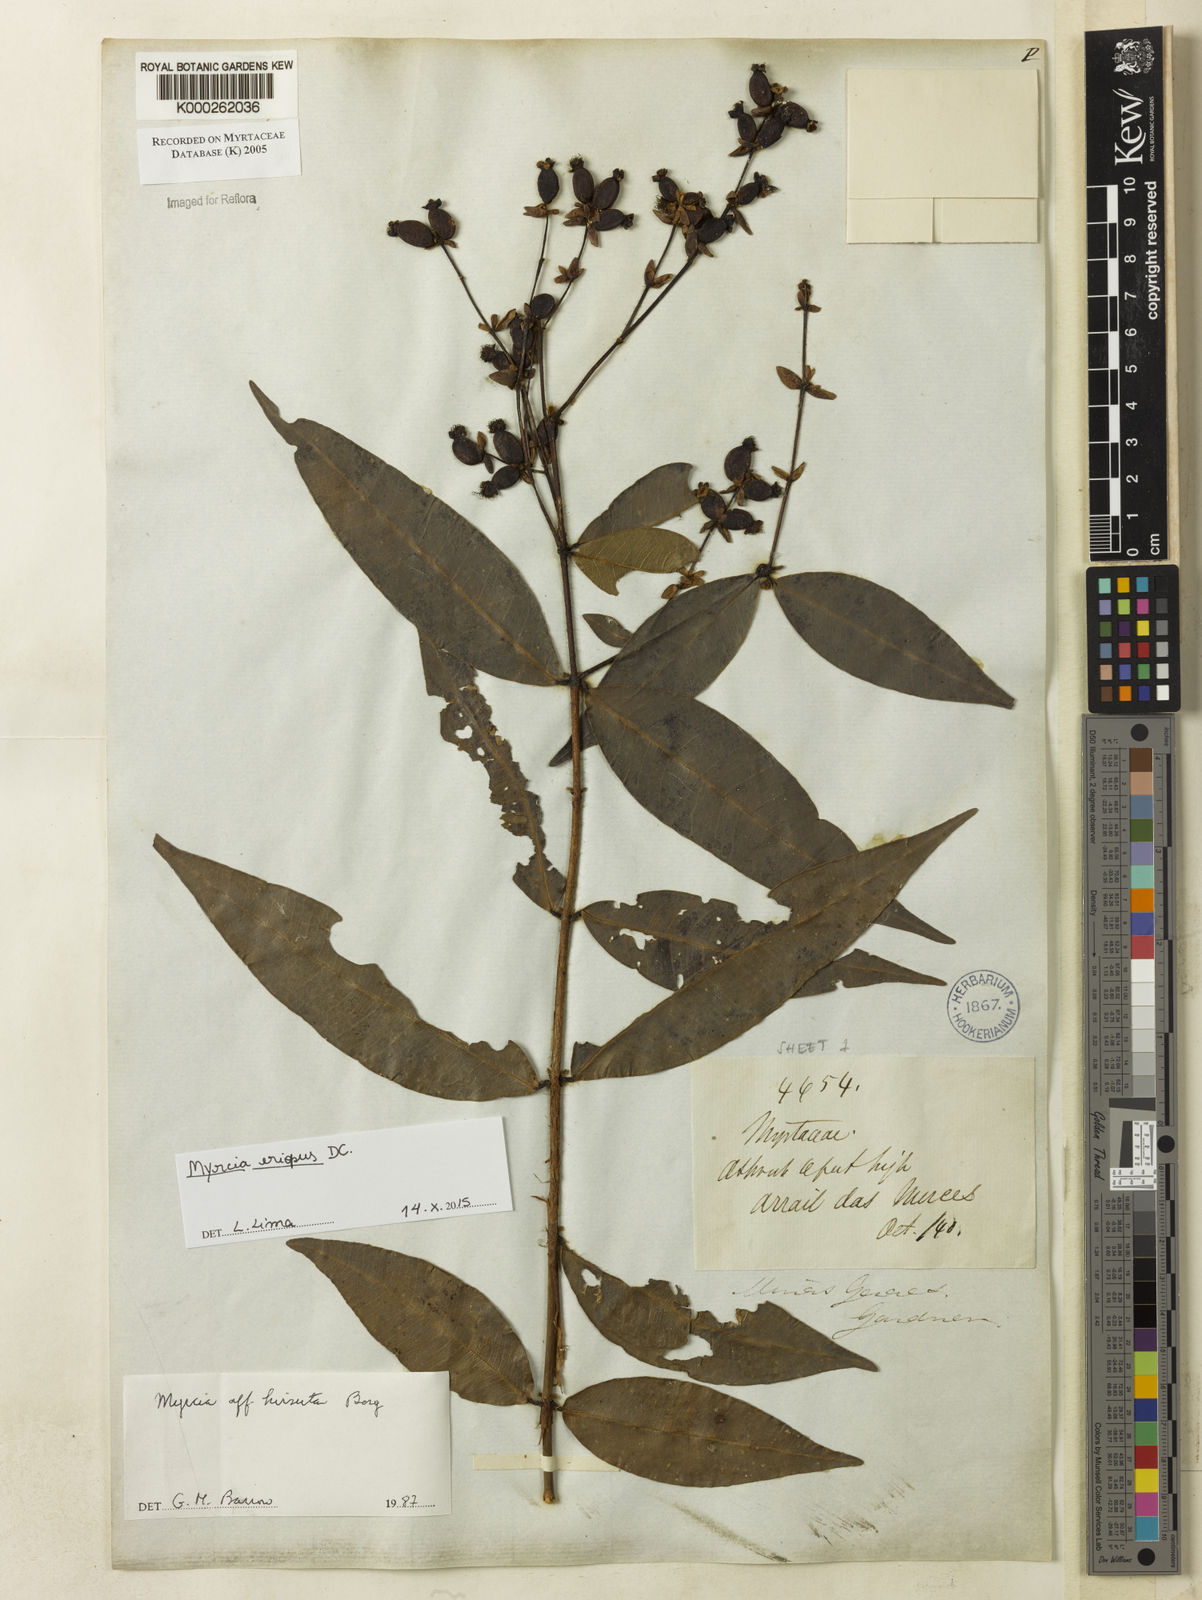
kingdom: Plantae
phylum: Tracheophyta
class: Magnoliopsida
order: Myrtales
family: Myrtaceae
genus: Myrcia
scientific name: Myrcia eriopus
